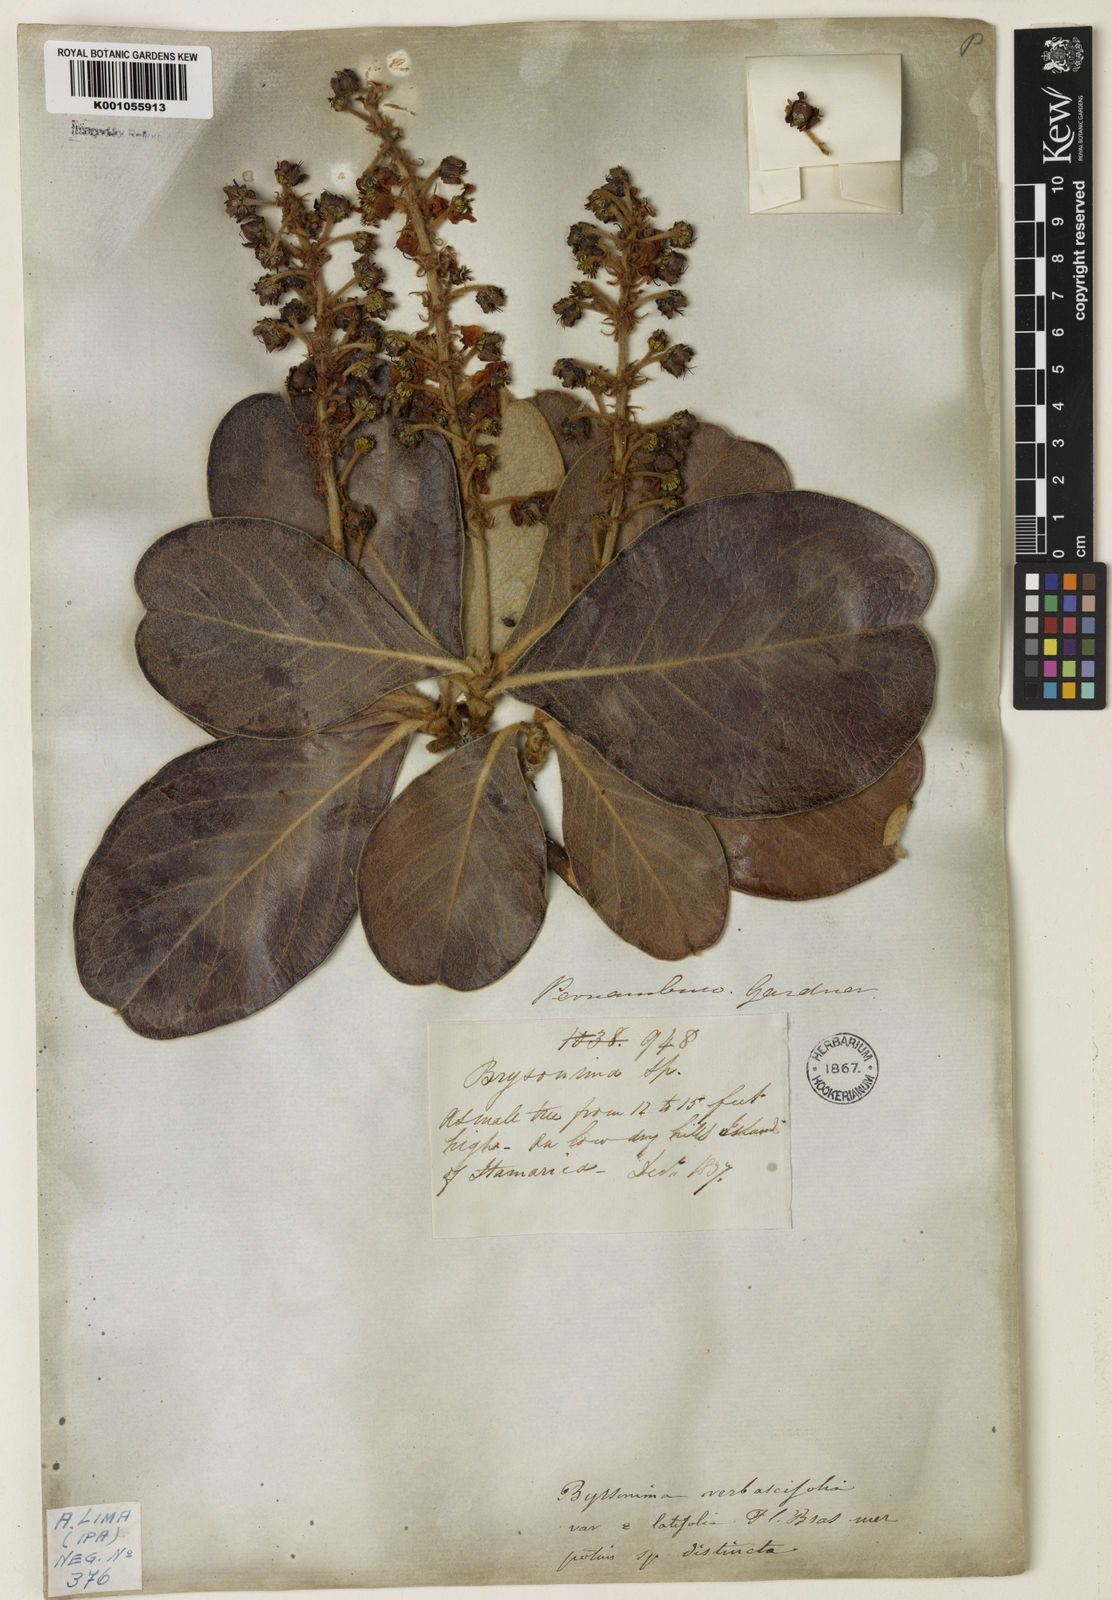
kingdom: Plantae
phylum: Tracheophyta
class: Magnoliopsida
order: Malpighiales
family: Malpighiaceae
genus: Byrsonima
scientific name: Byrsonima verbascifolia
